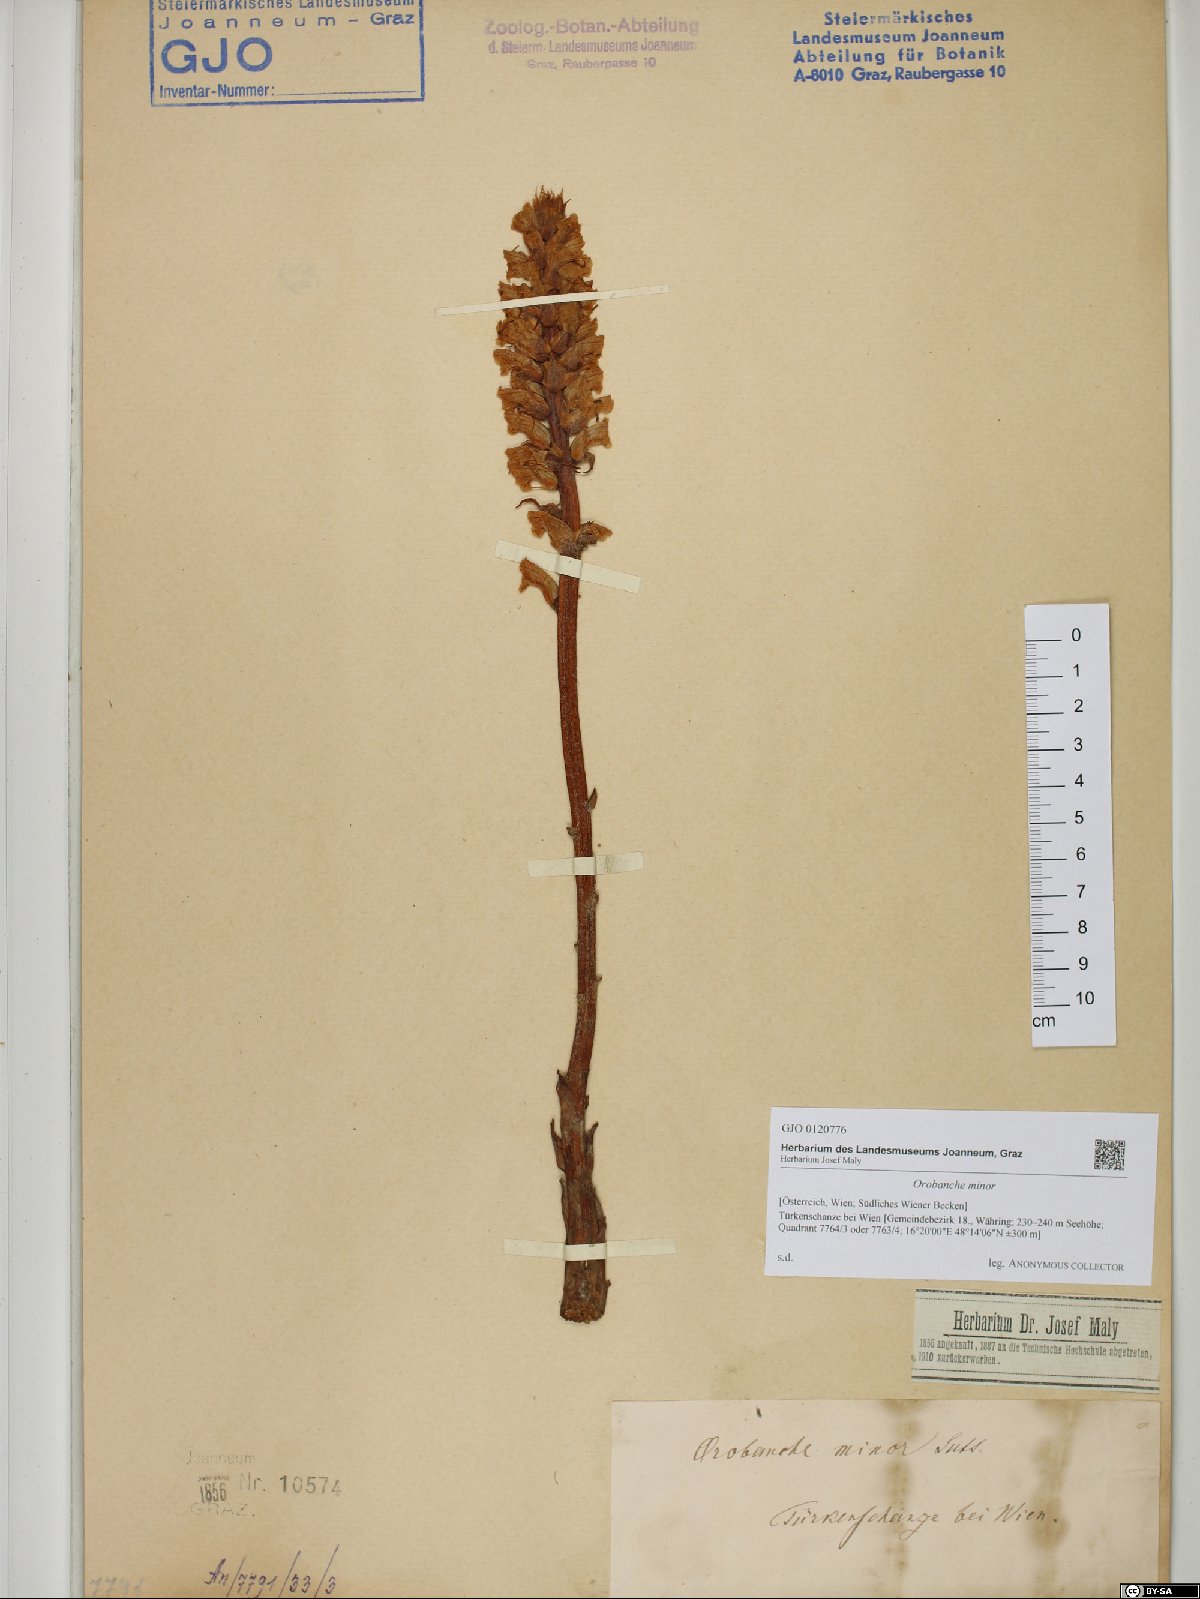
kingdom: Plantae
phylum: Tracheophyta
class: Magnoliopsida
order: Lamiales
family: Orobanchaceae
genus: Orobanche
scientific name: Orobanche minor
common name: Common broomrape
